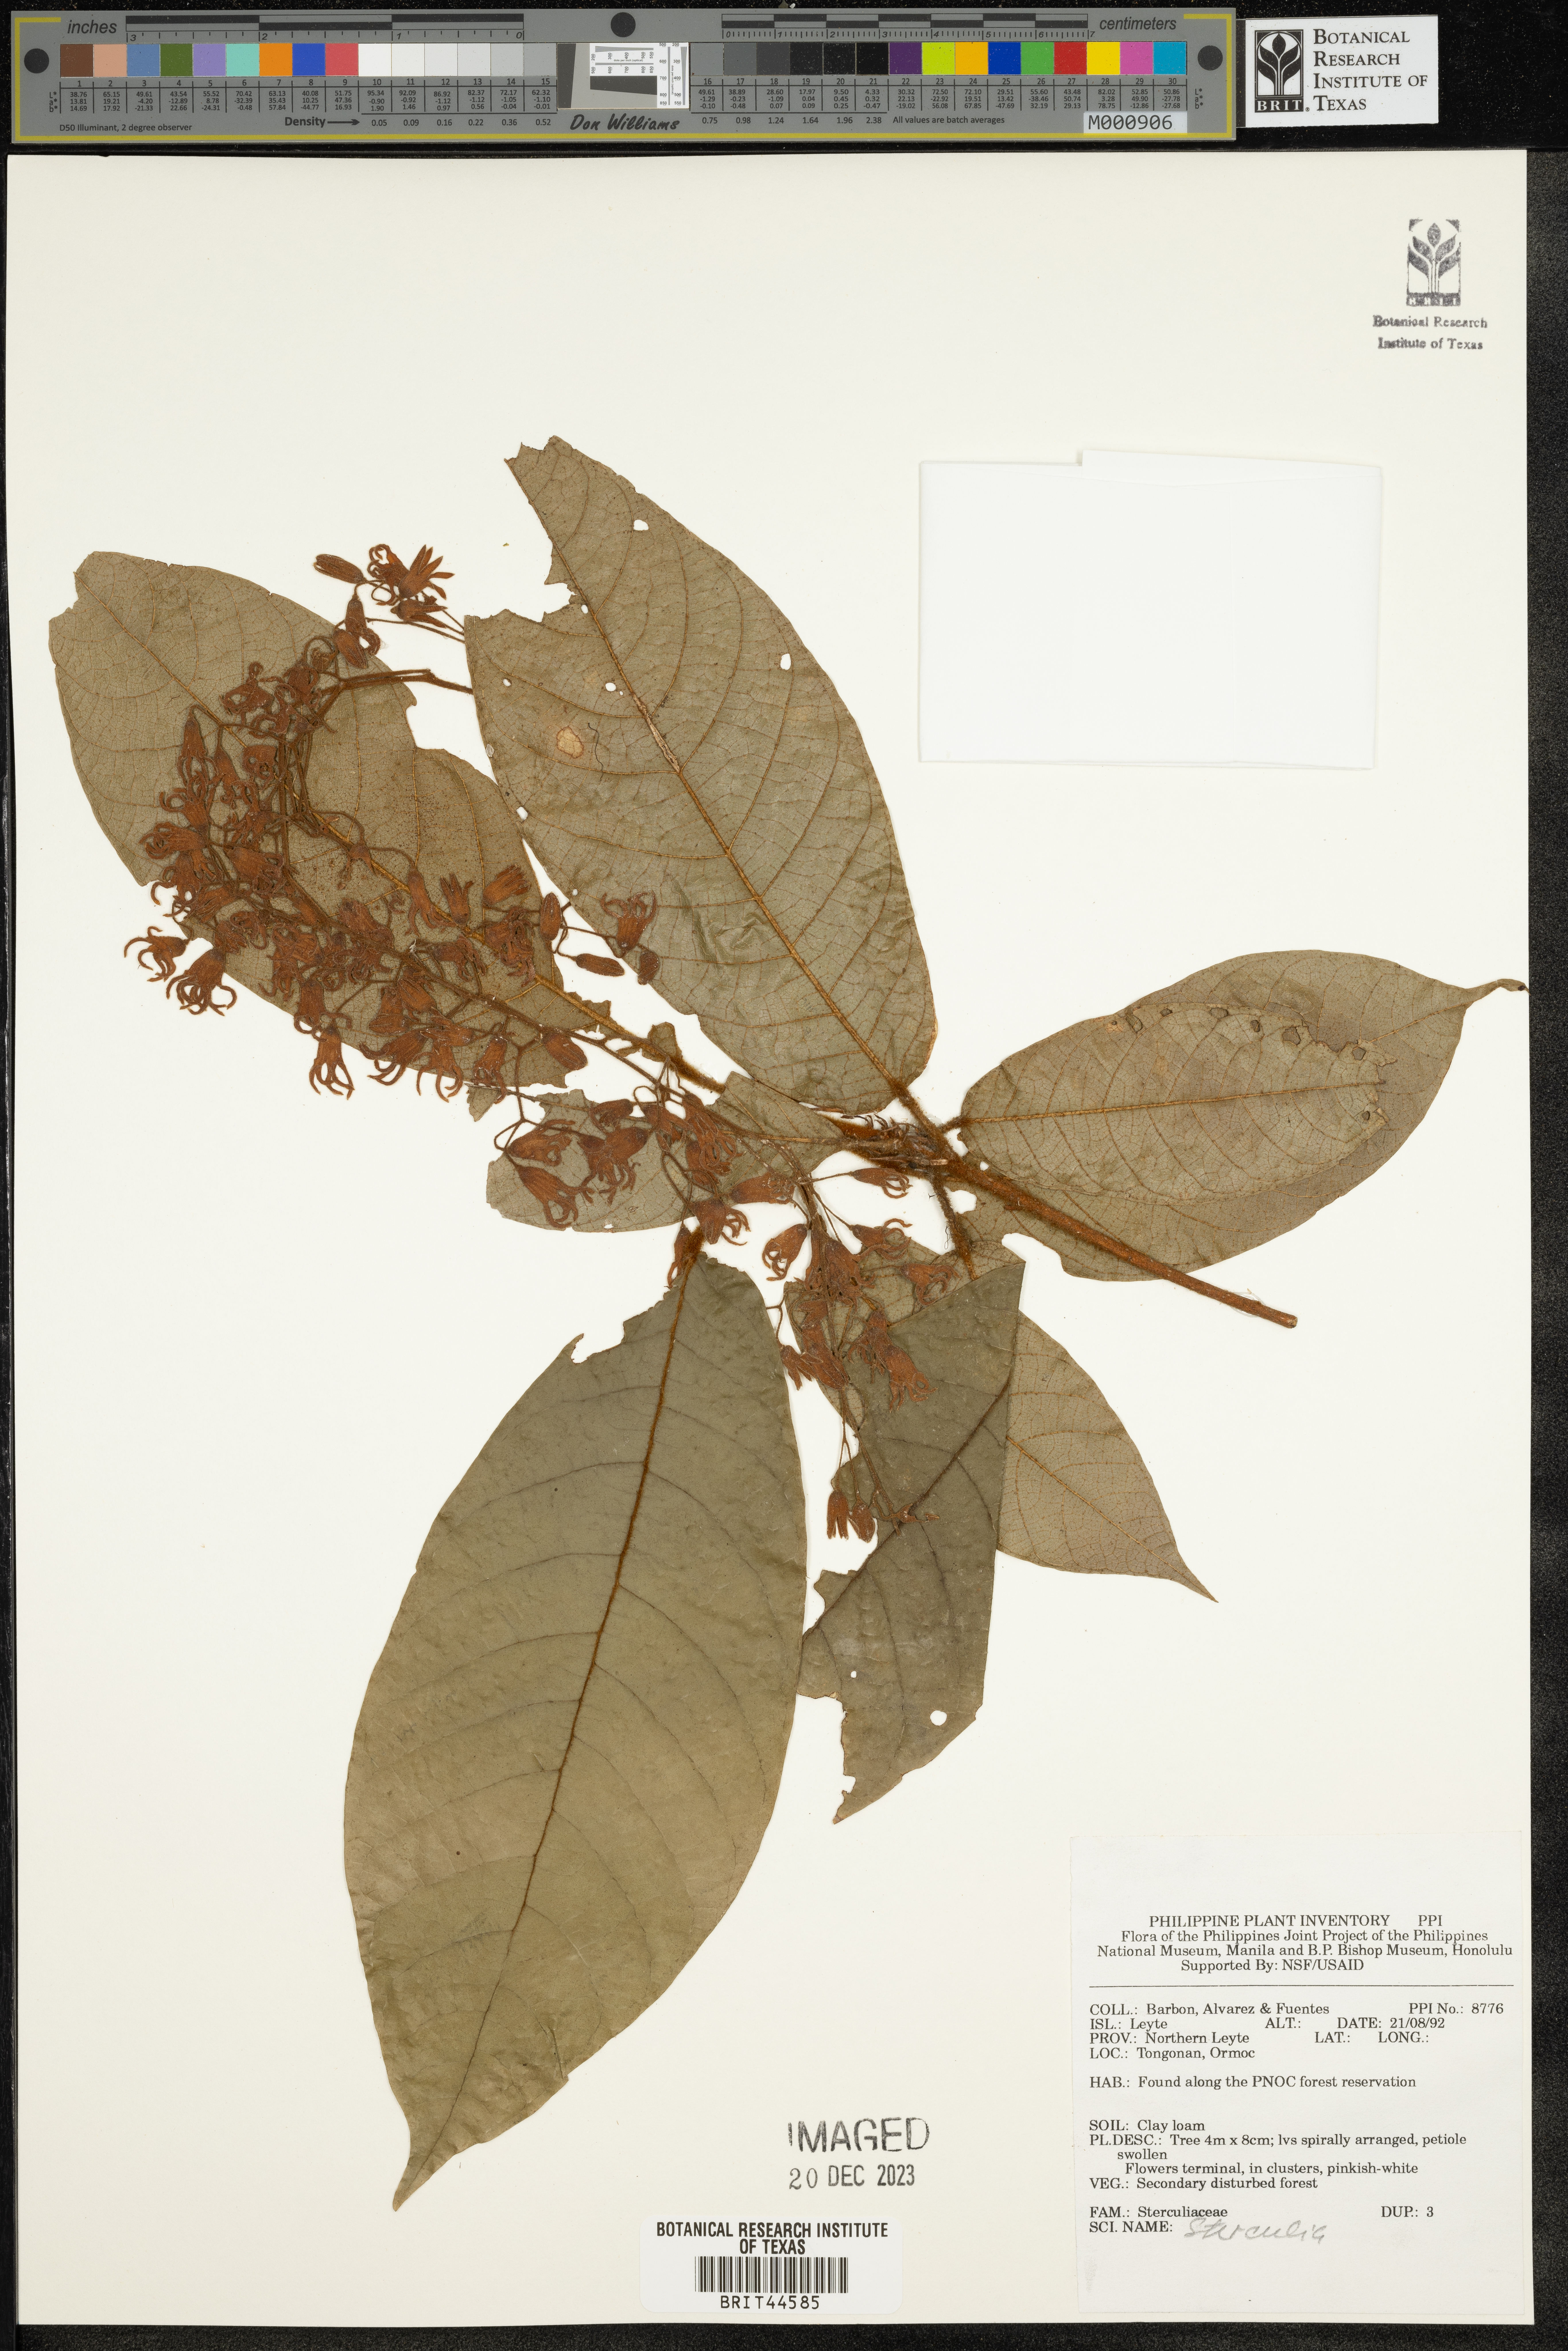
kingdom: Plantae
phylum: Tracheophyta
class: Magnoliopsida
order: Malvales
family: Malvaceae
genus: Sterculia
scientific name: Sterculia
